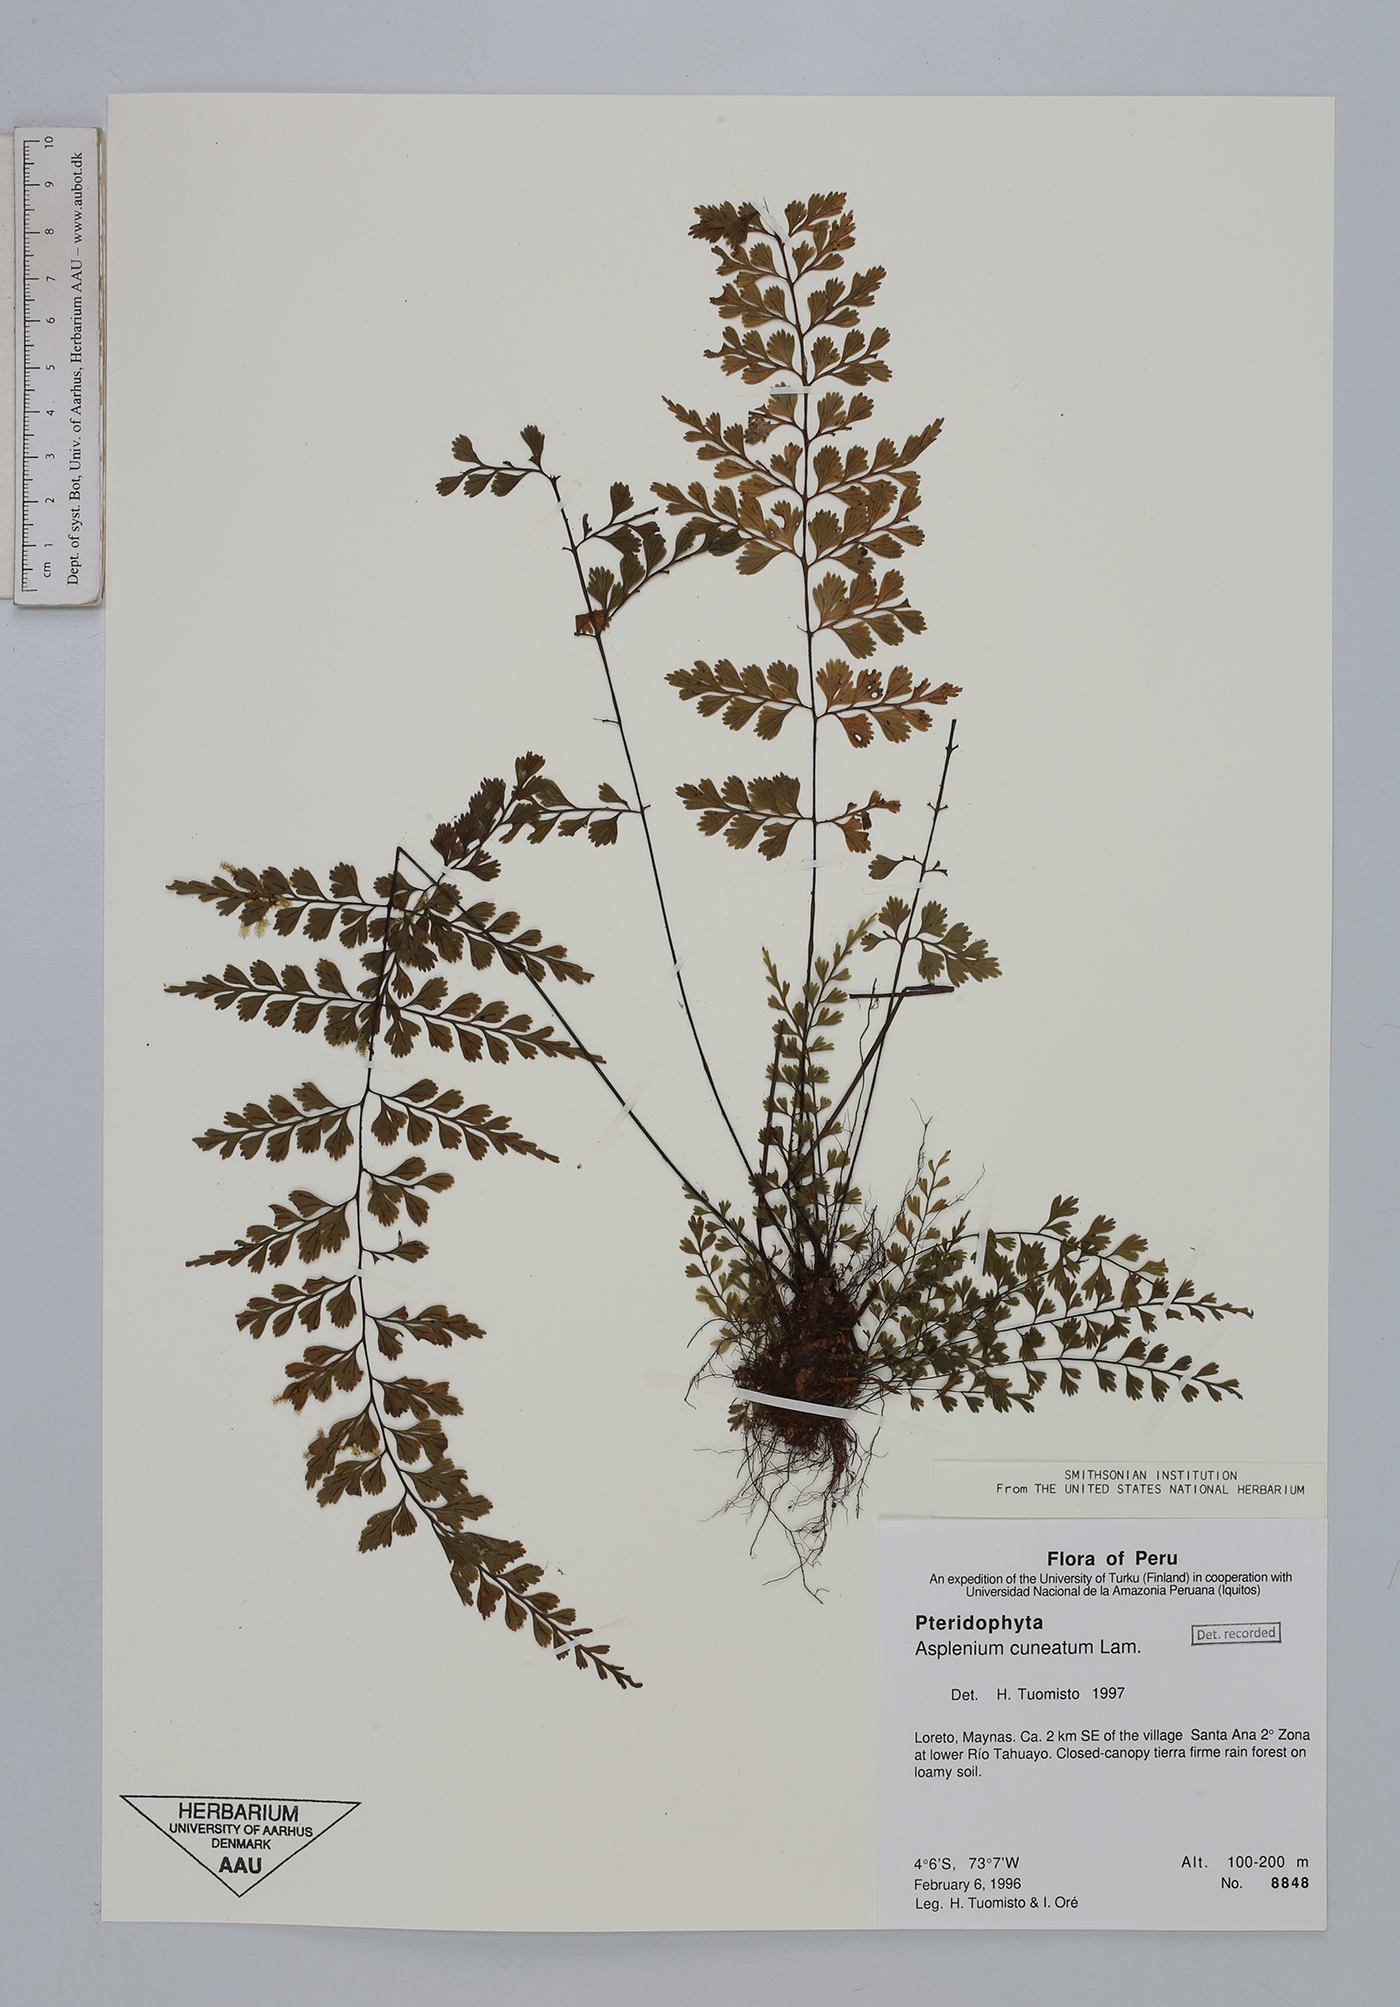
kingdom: Plantae
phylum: Tracheophyta
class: Polypodiopsida
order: Polypodiales
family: Aspleniaceae
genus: Asplenium
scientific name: Asplenium cuneatum
